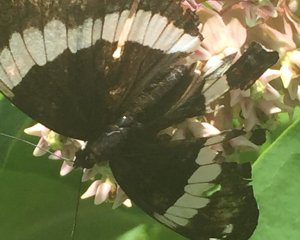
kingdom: Animalia
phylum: Arthropoda
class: Insecta
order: Lepidoptera
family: Nymphalidae
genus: Limenitis
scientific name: Limenitis arthemis
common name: Red-spotted Admiral
